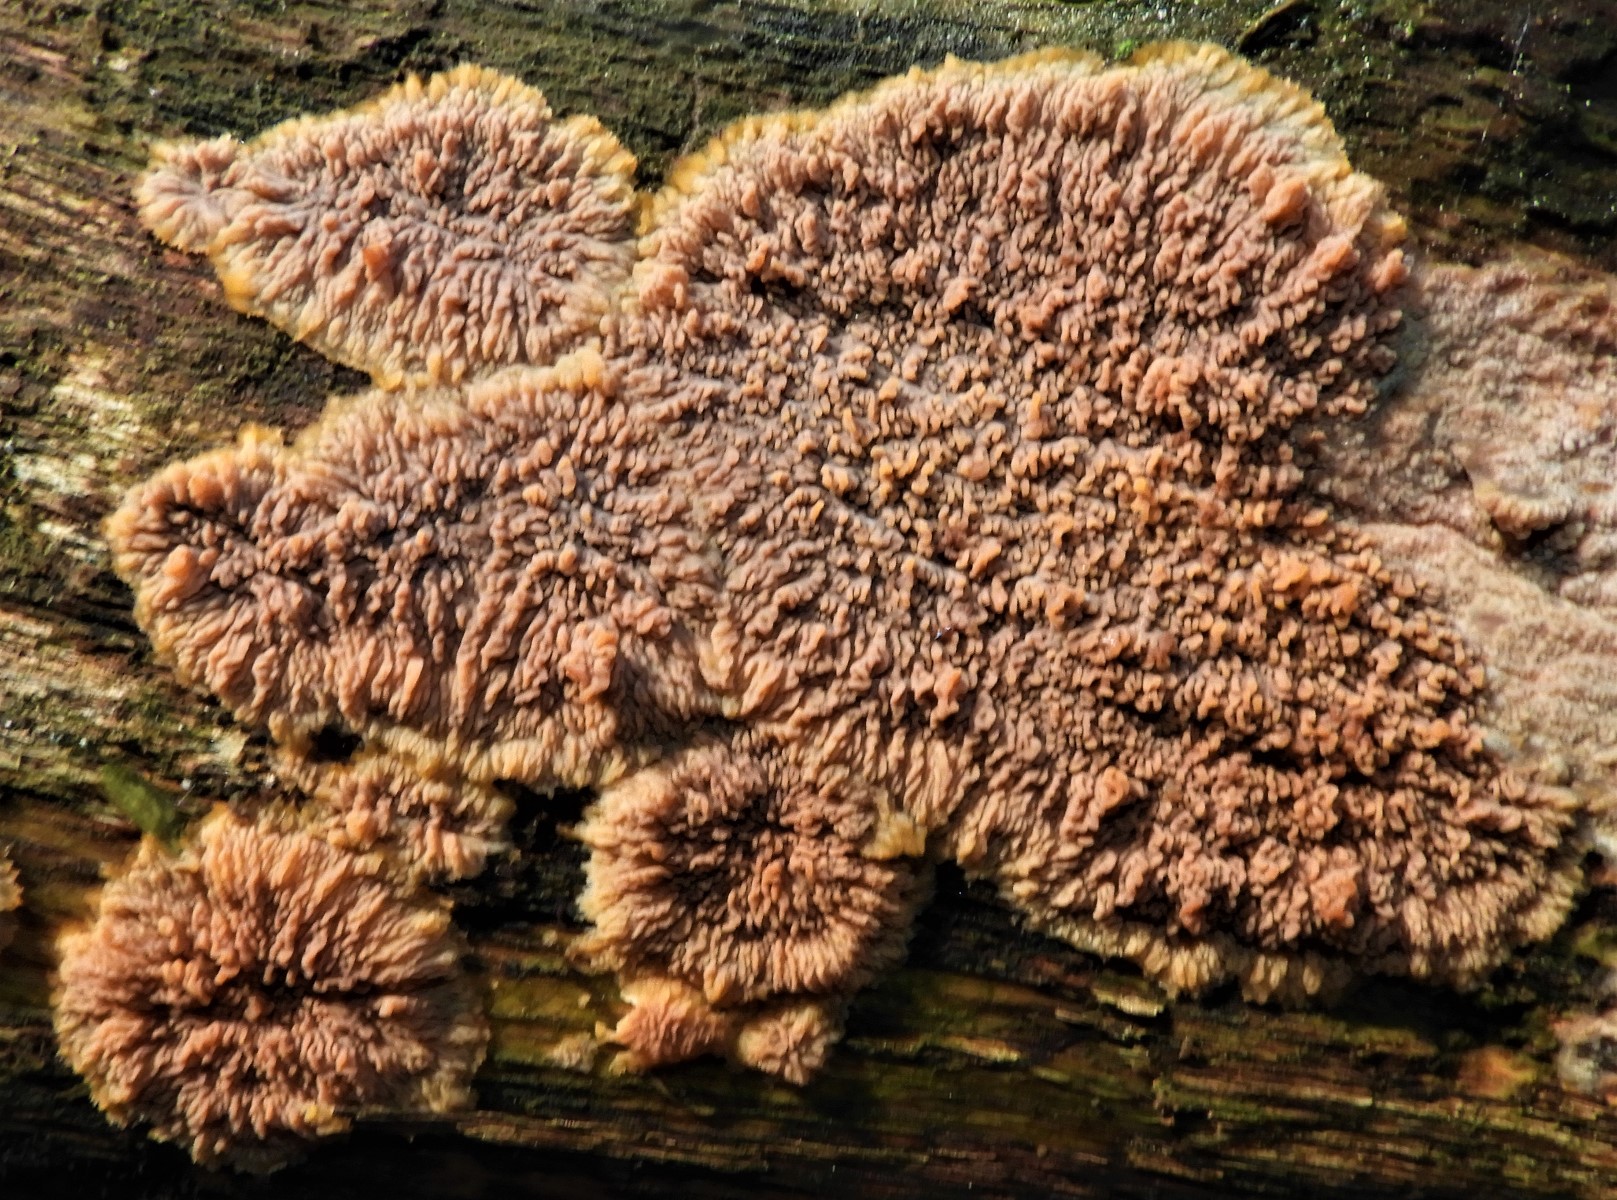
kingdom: Fungi
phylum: Basidiomycota
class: Agaricomycetes
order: Polyporales
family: Meruliaceae
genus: Phlebia
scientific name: Phlebia radiata
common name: stråle-åresvamp
